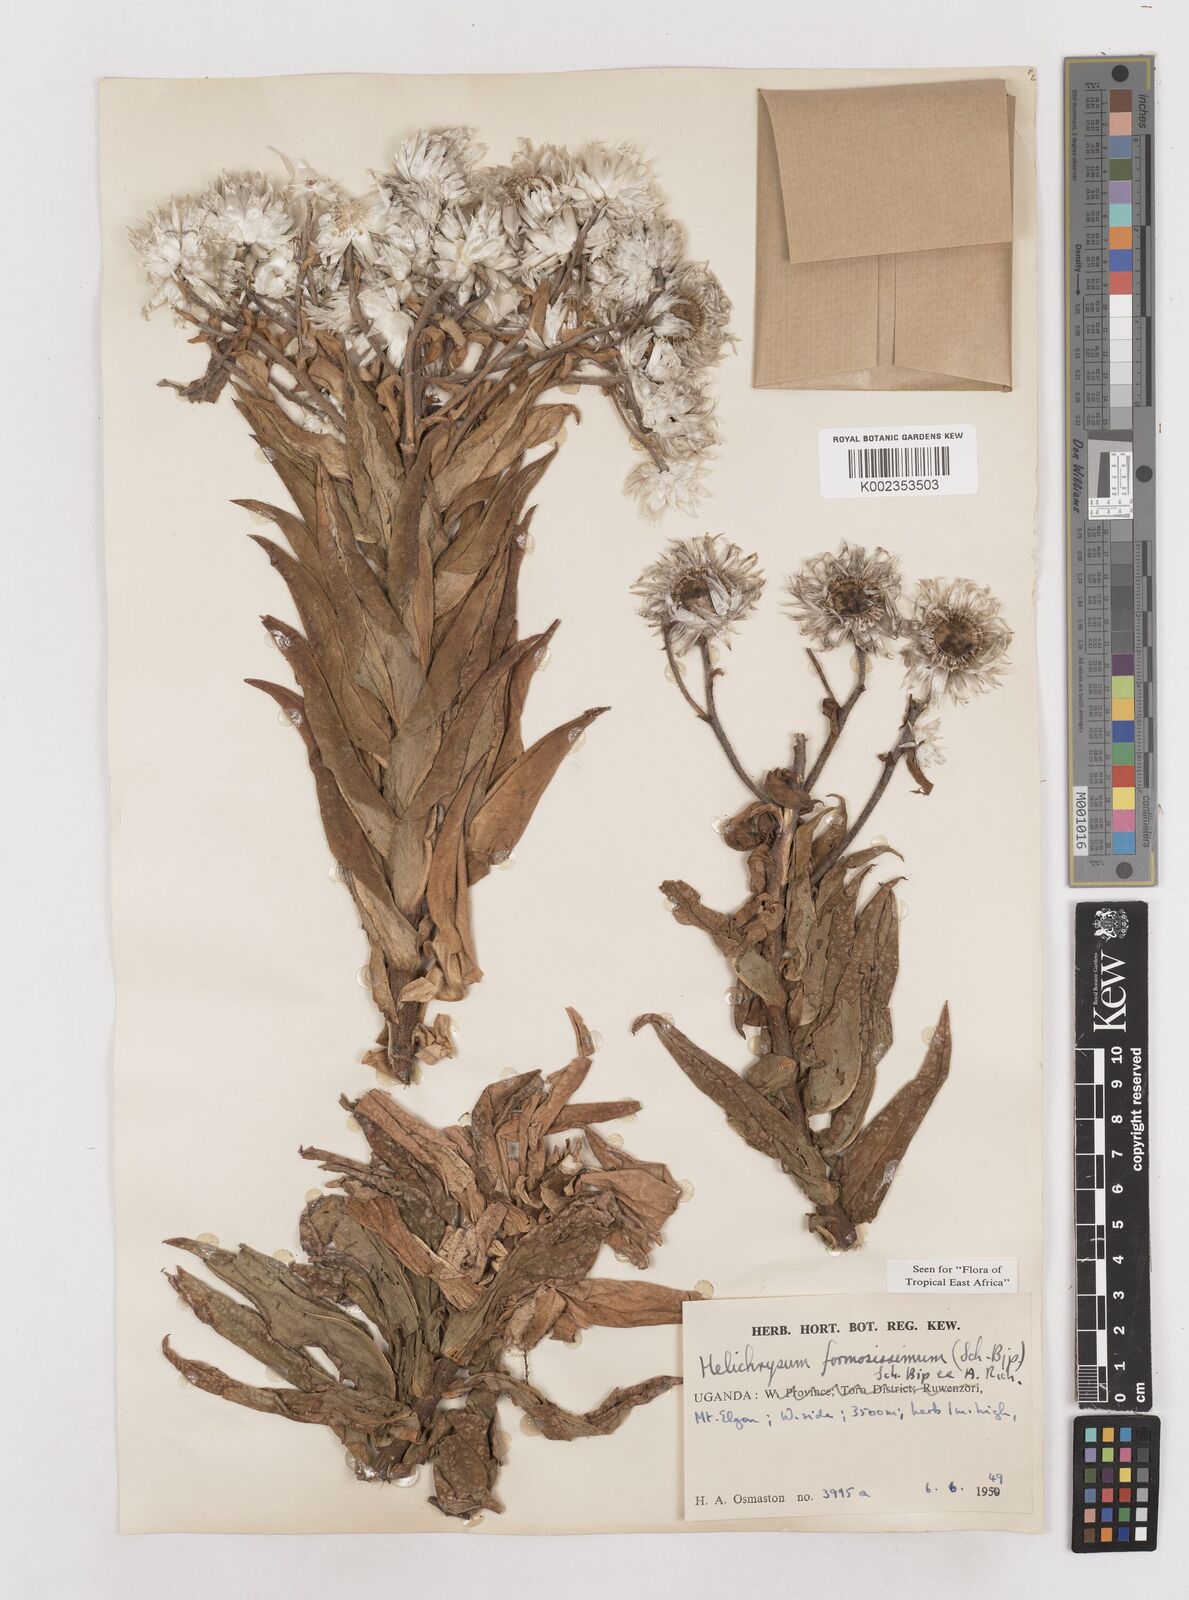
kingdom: Plantae
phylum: Tracheophyta
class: Magnoliopsida
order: Asterales
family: Asteraceae
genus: Helichrysum
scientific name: Helichrysum formosissimum
